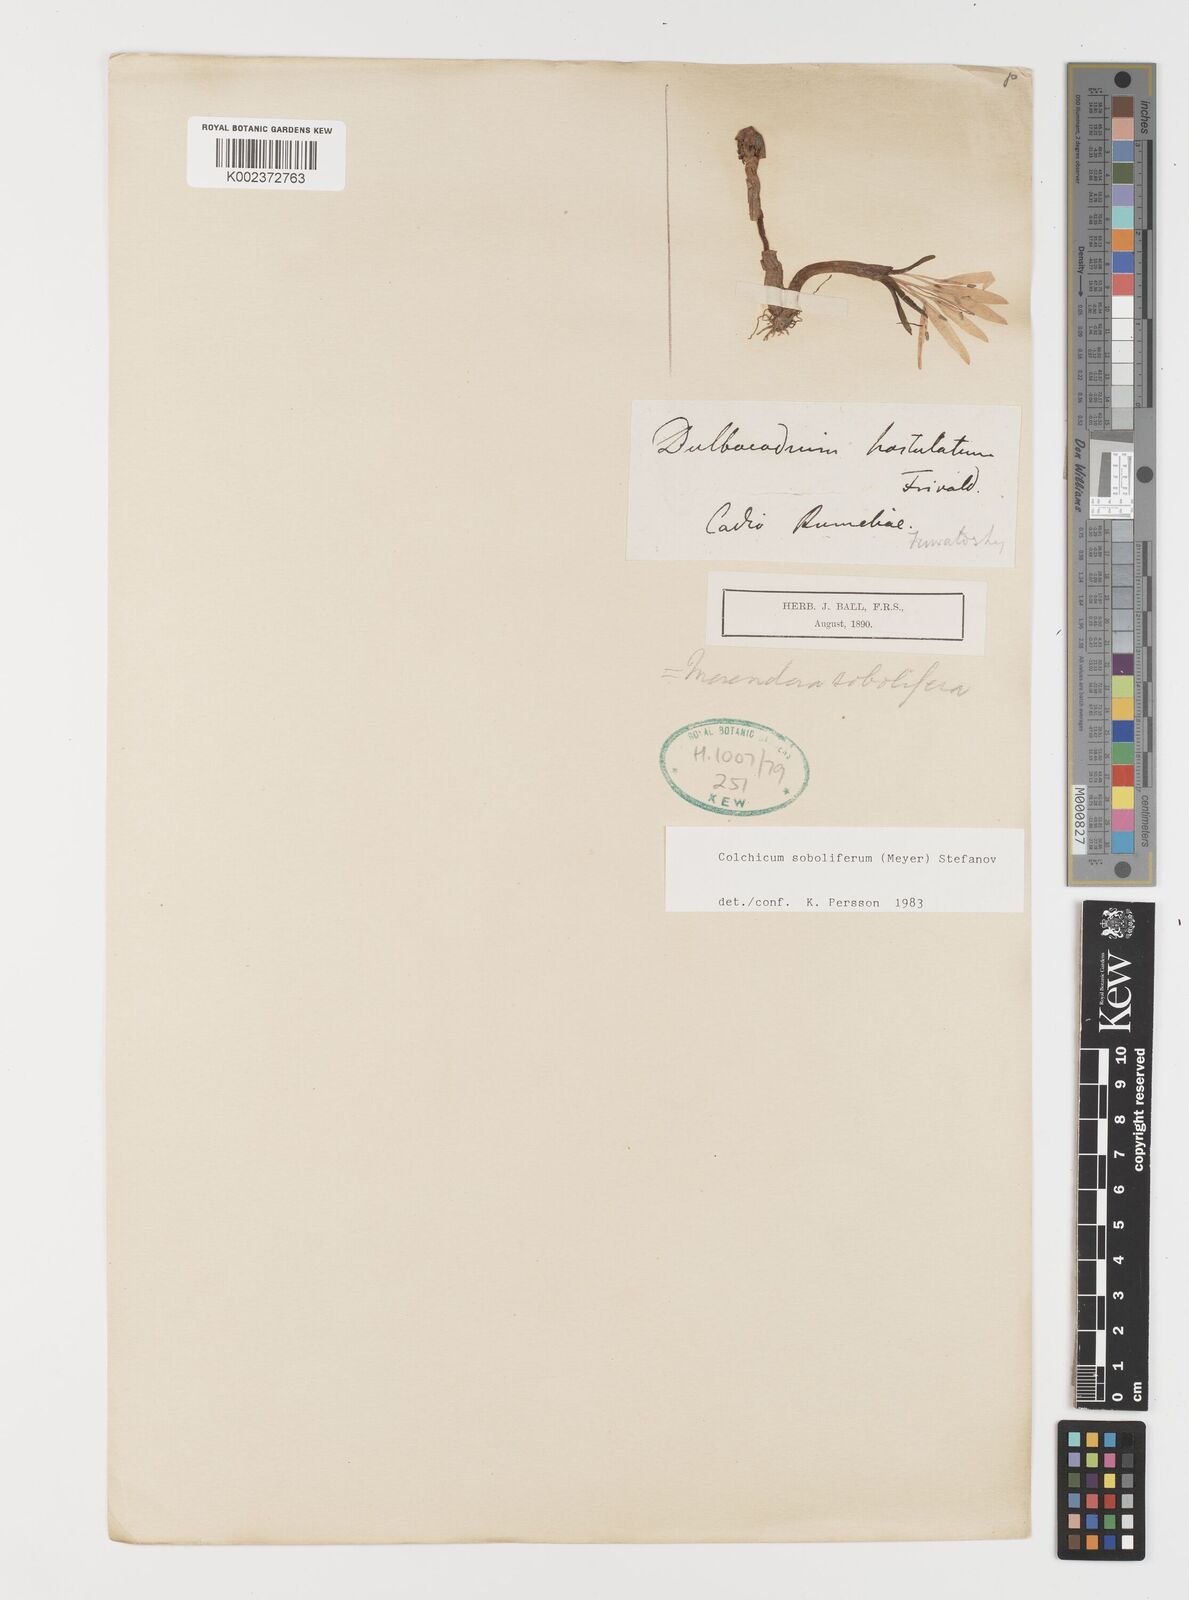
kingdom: Plantae
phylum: Tracheophyta
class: Liliopsida
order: Liliales
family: Colchicaceae
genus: Colchicum
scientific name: Colchicum soboliferum
